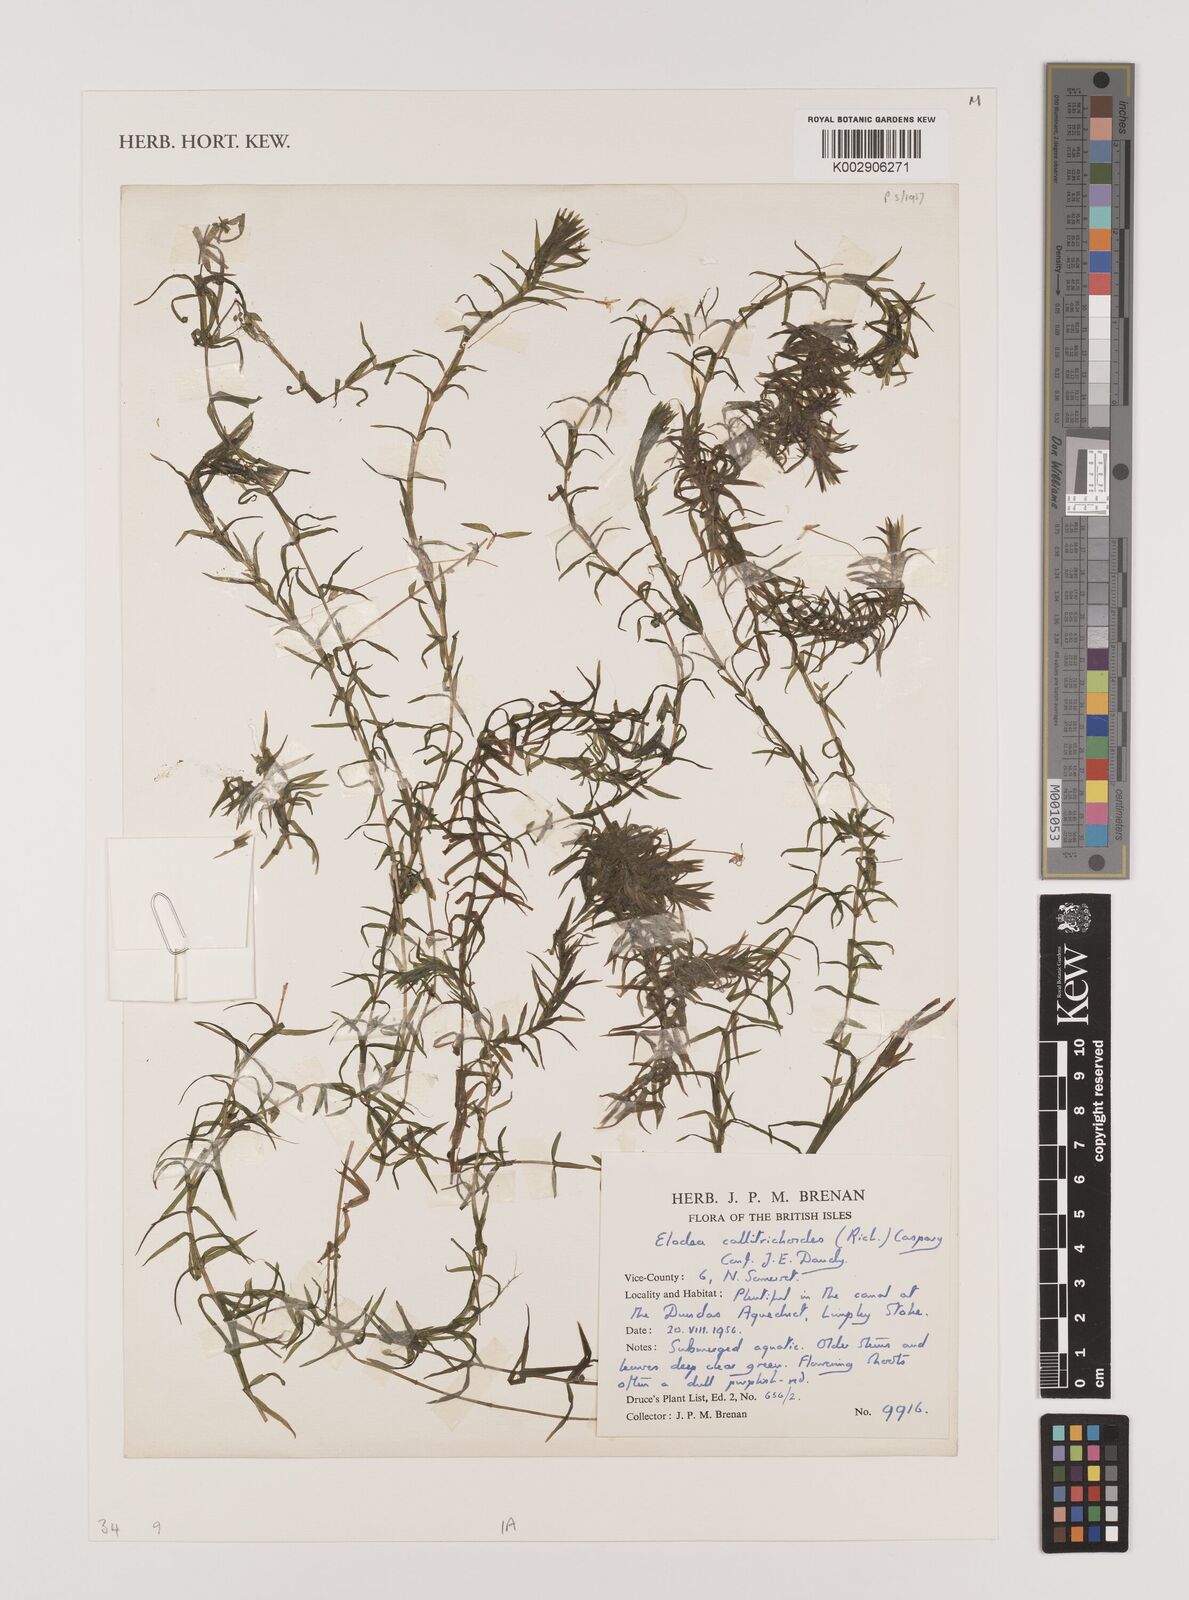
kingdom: Plantae
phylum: Tracheophyta
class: Liliopsida
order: Alismatales
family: Hydrocharitaceae
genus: Elodea
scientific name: Elodea callitrichoides
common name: South american waterweed
